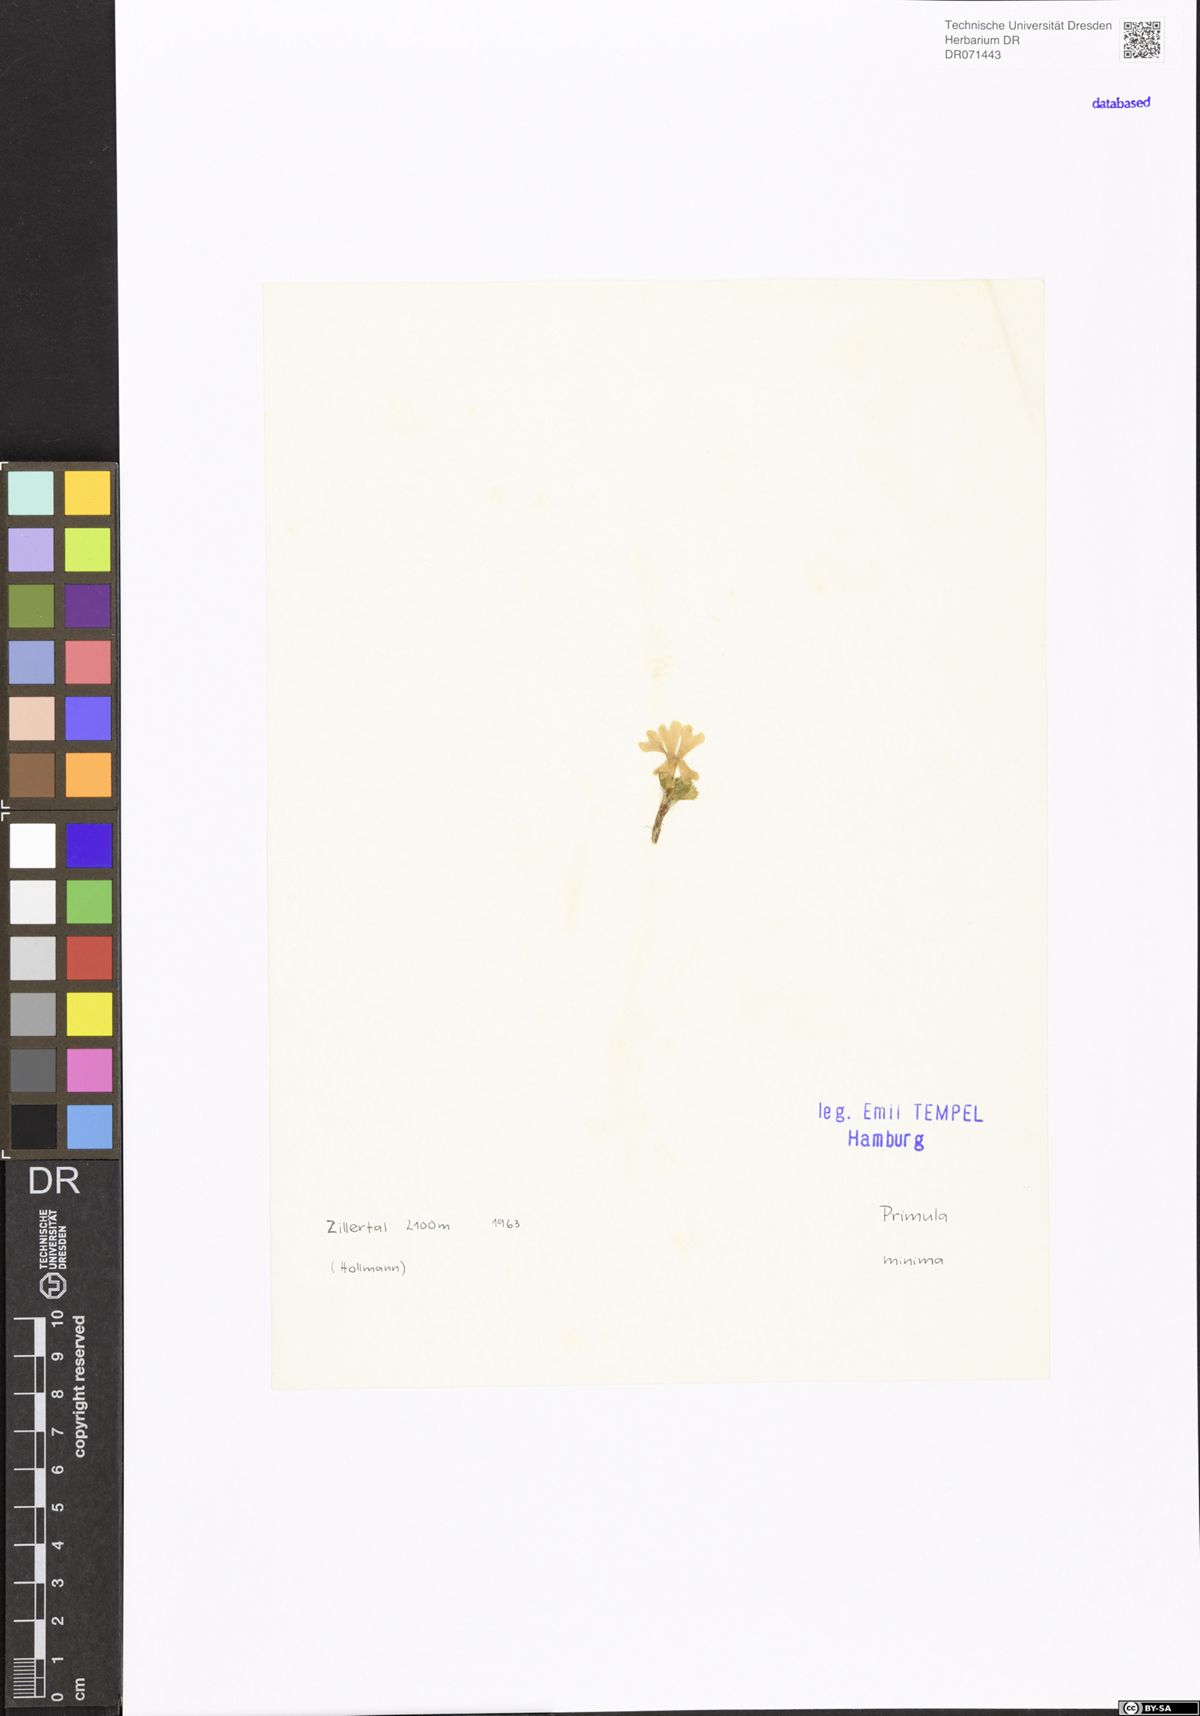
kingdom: Plantae
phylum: Tracheophyta
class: Magnoliopsida
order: Ericales
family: Primulaceae
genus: Primula
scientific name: Primula minima
